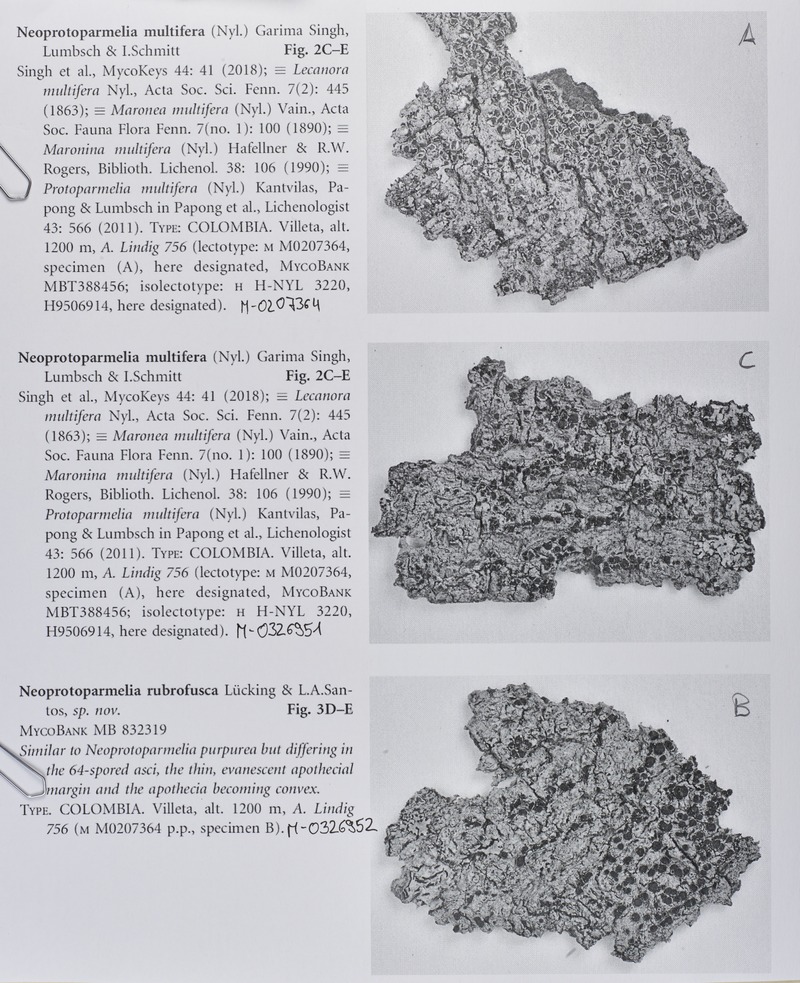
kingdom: Fungi
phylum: Ascomycota
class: Lecanoromycetes
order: Lecanorales
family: Parmeliaceae
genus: Neoprotoparmelia
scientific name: Neoprotoparmelia multifera
